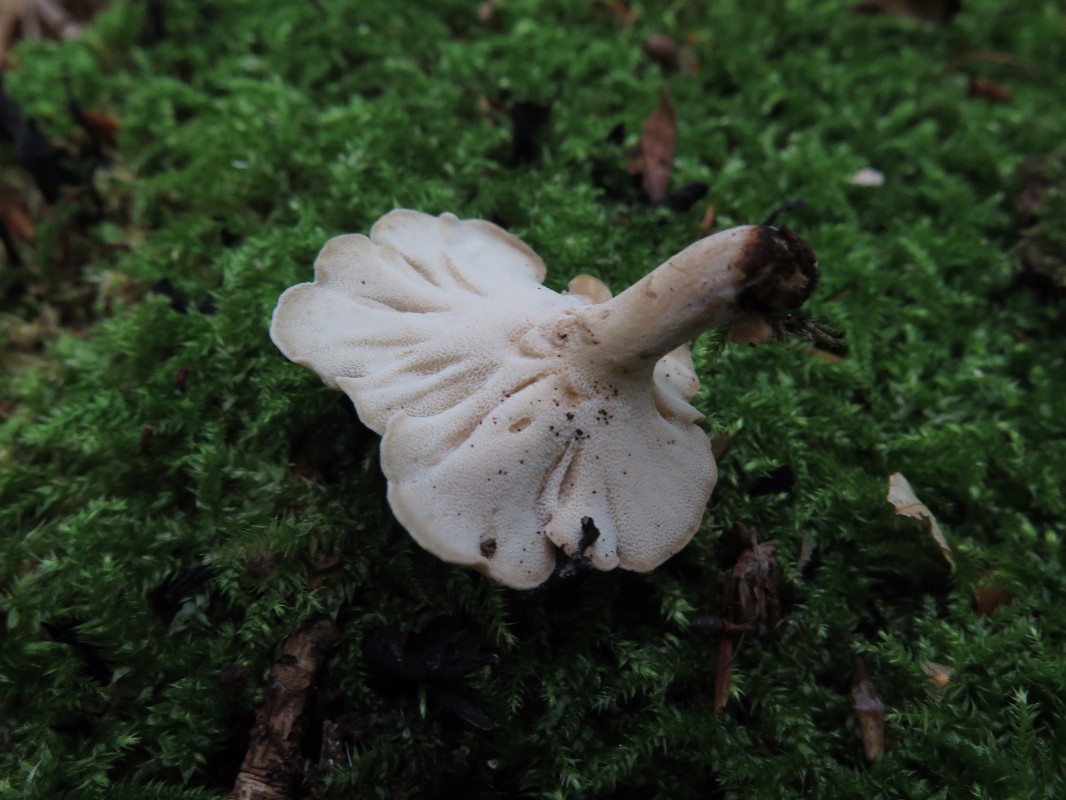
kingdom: Fungi
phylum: Basidiomycota
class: Agaricomycetes
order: Polyporales
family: Polyporaceae
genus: Cerioporus
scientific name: Cerioporus varius
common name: foranderlig stilkporesvamp
